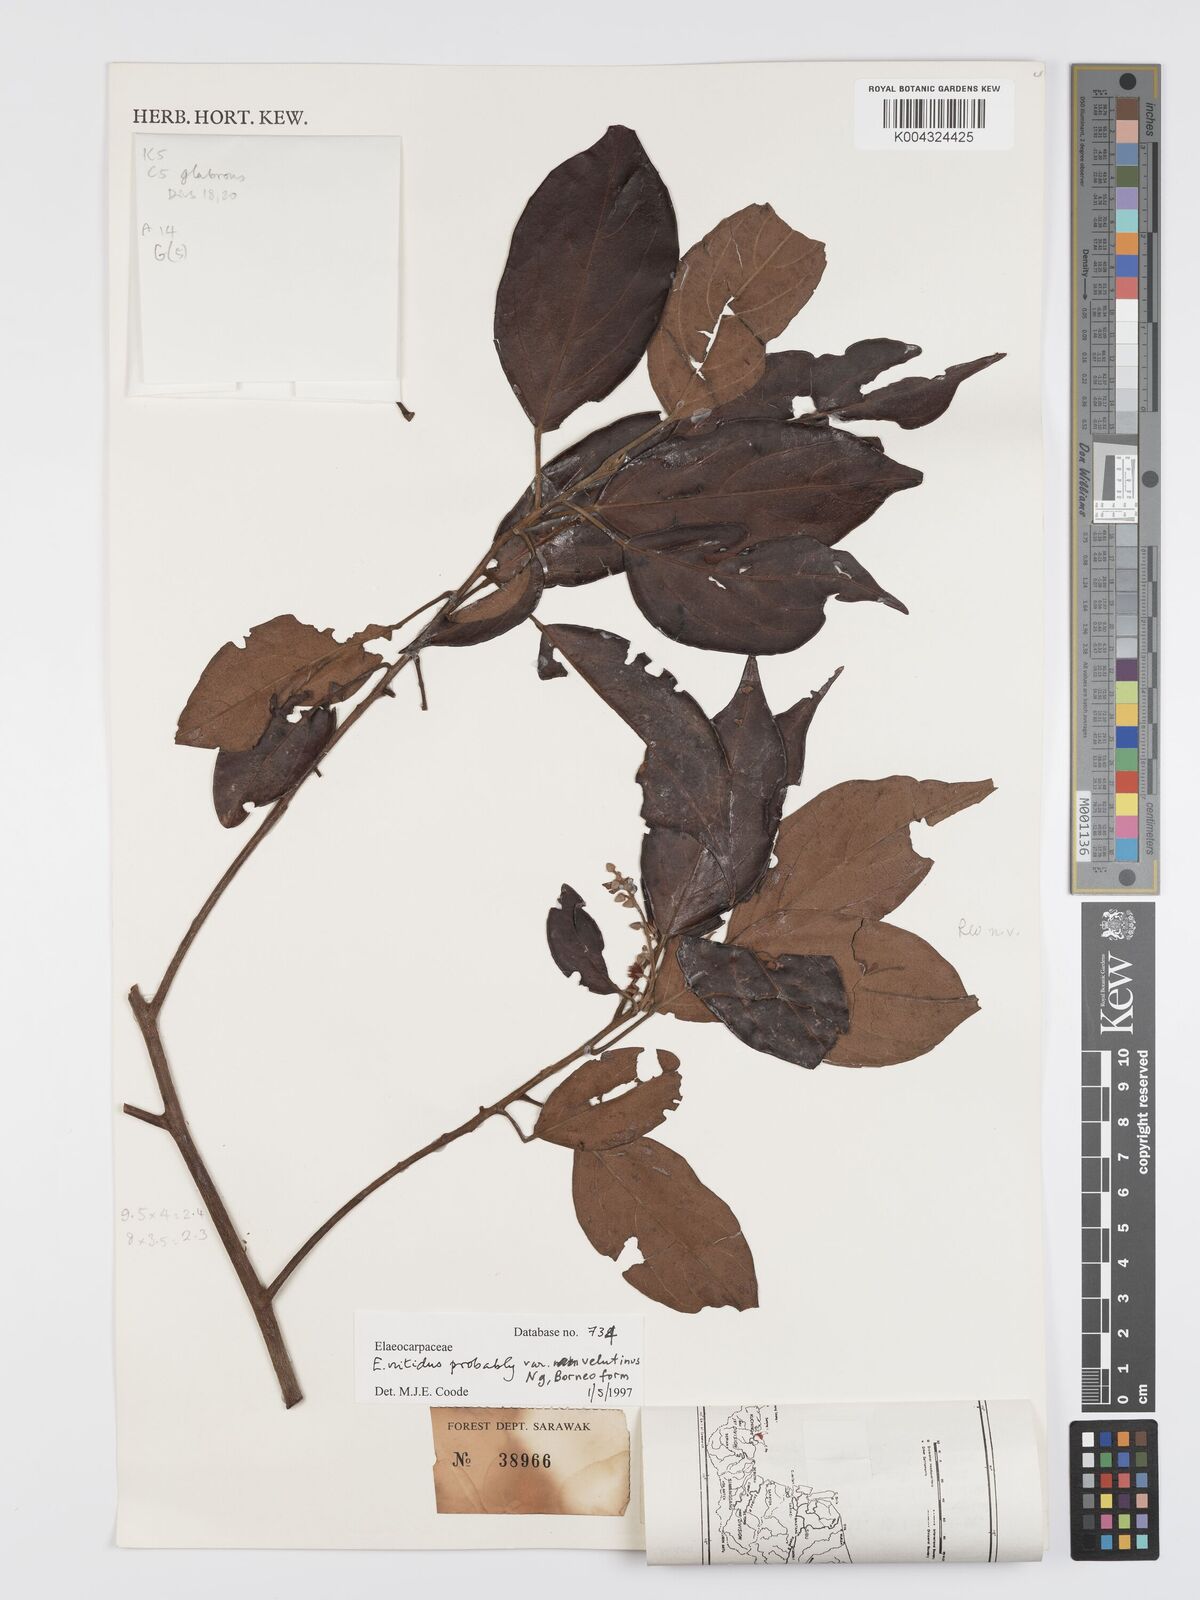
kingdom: Plantae
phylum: Tracheophyta
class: Magnoliopsida
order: Oxalidales
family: Elaeocarpaceae
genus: Elaeocarpus
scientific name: Elaeocarpus nitidus
